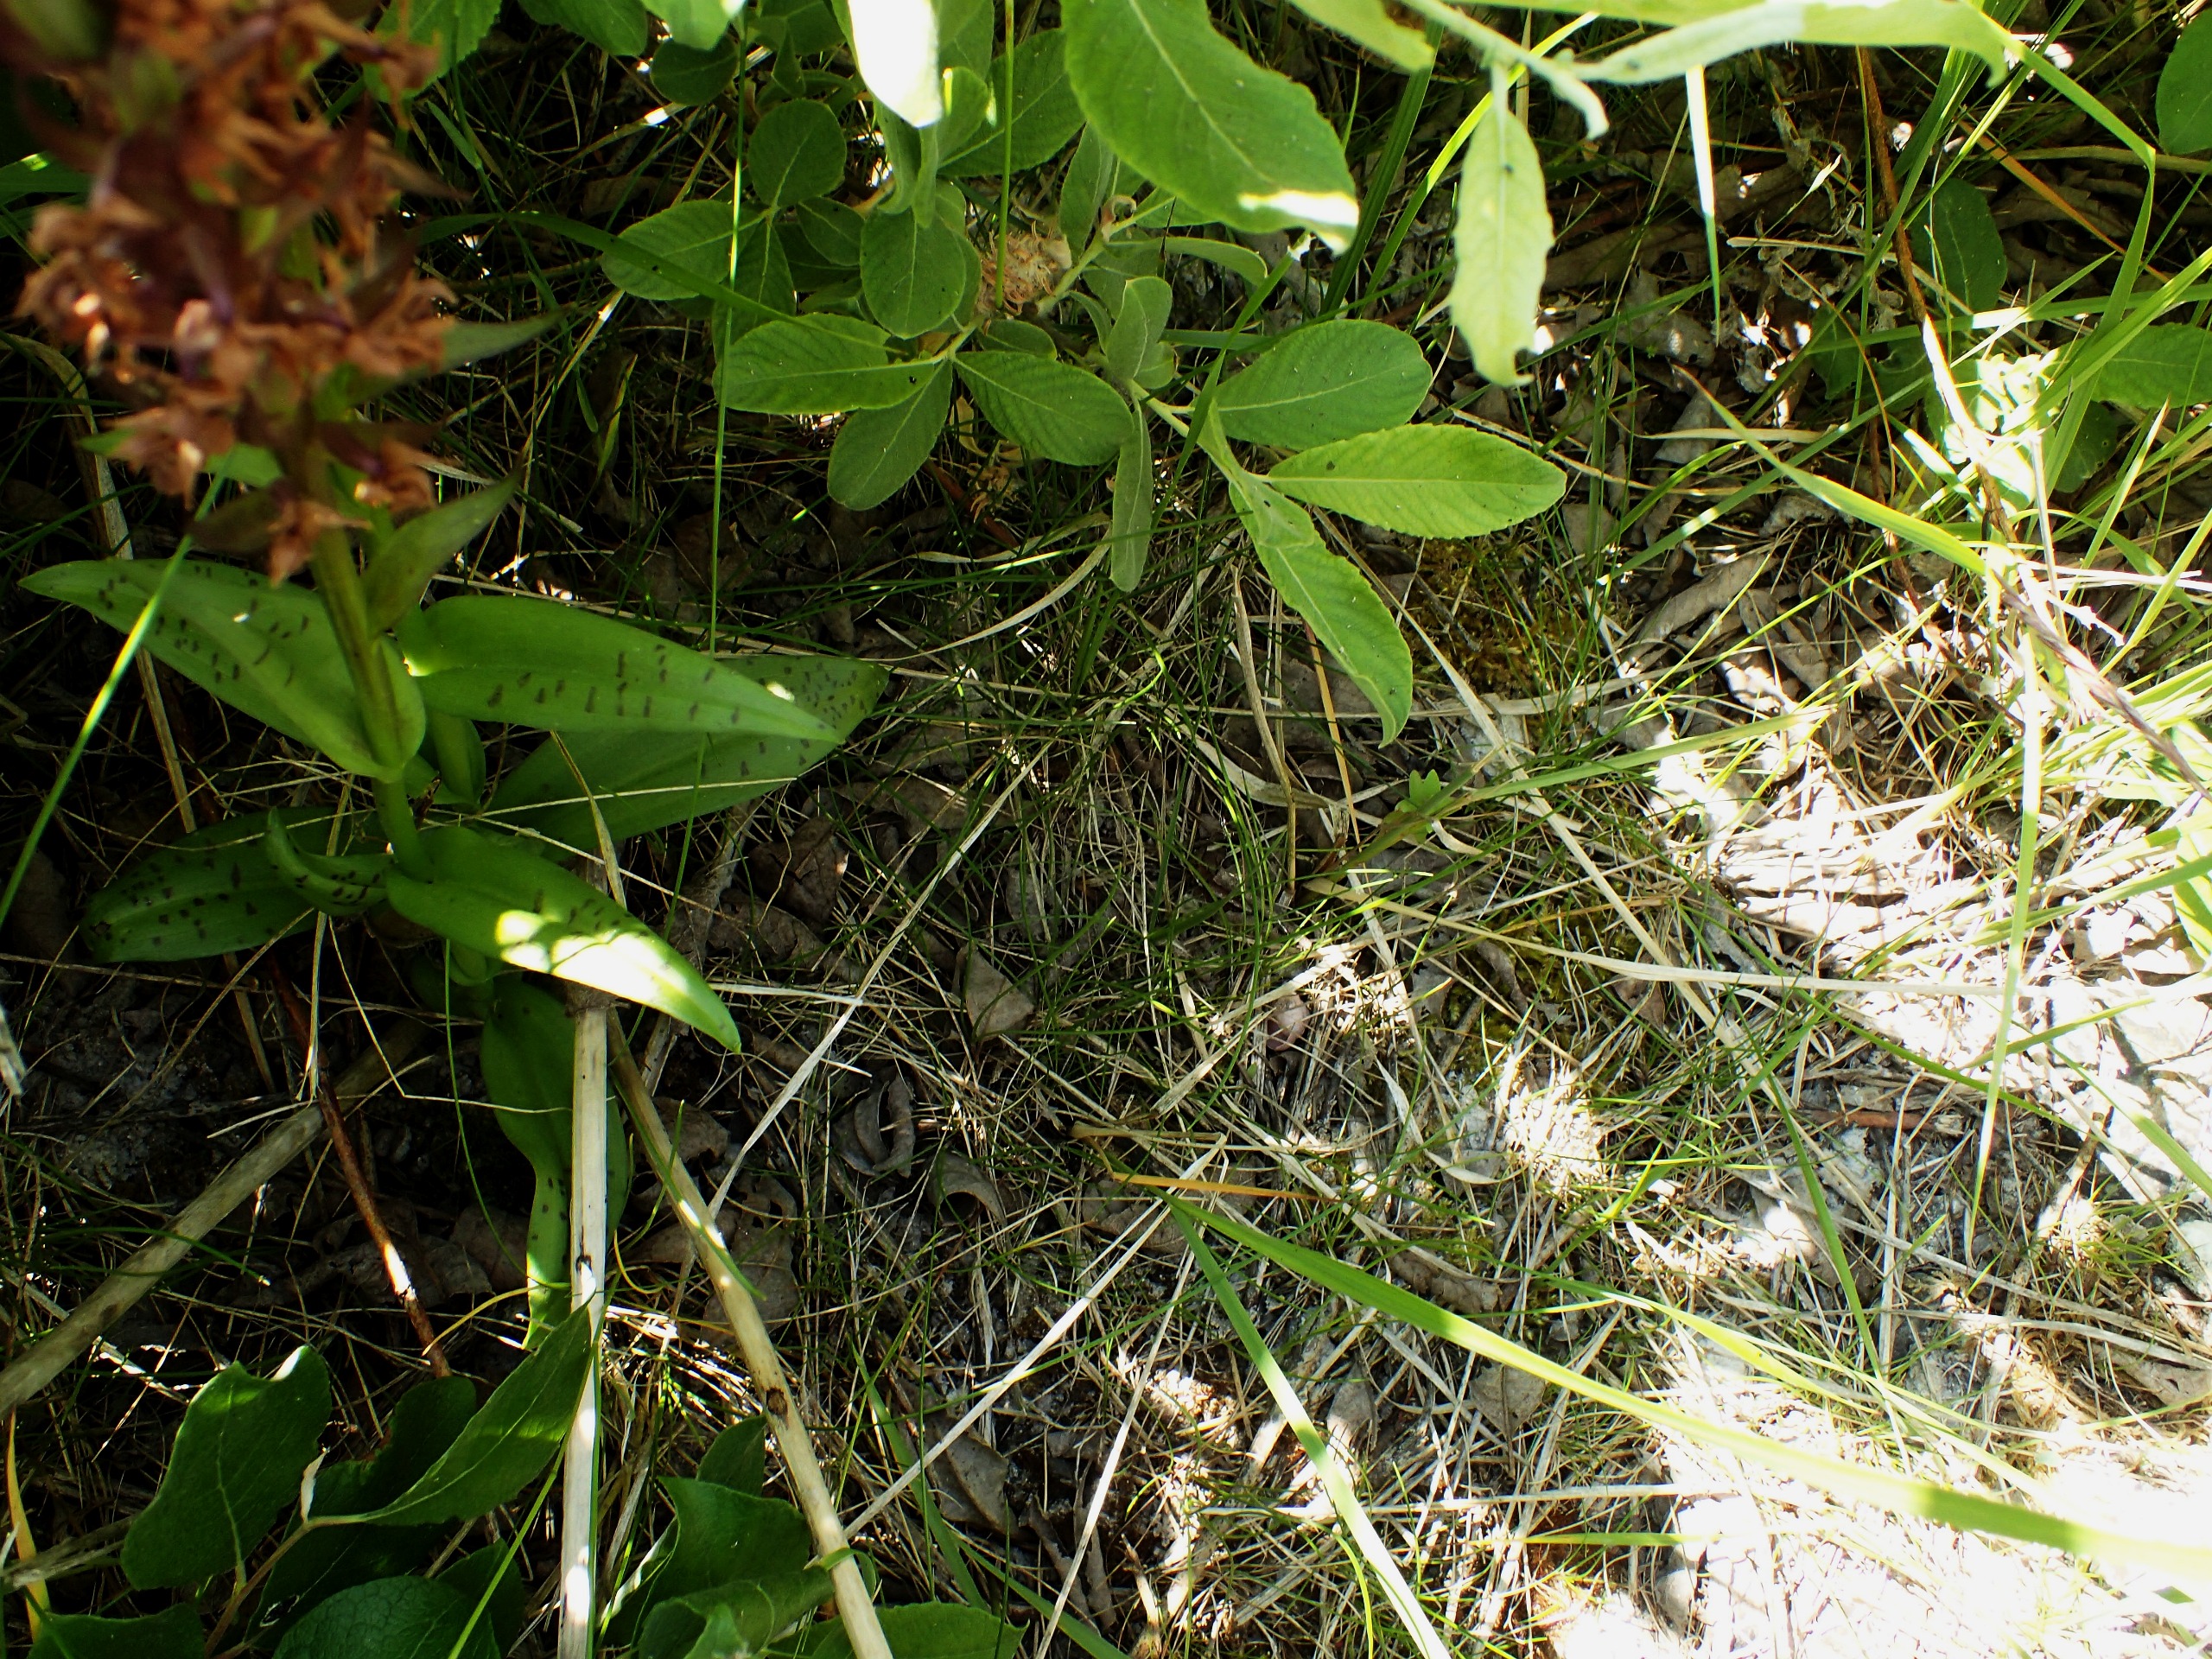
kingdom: Plantae
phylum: Tracheophyta
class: Liliopsida
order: Asparagales
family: Orchidaceae
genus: Dactylorhiza
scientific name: Dactylorhiza majalis
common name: Maj-gøgeurt
